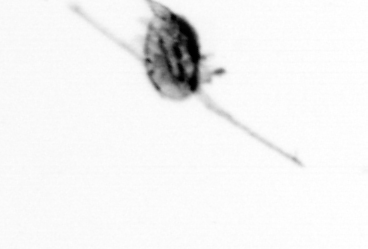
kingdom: Animalia
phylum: Arthropoda
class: Copepoda
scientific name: Copepoda
